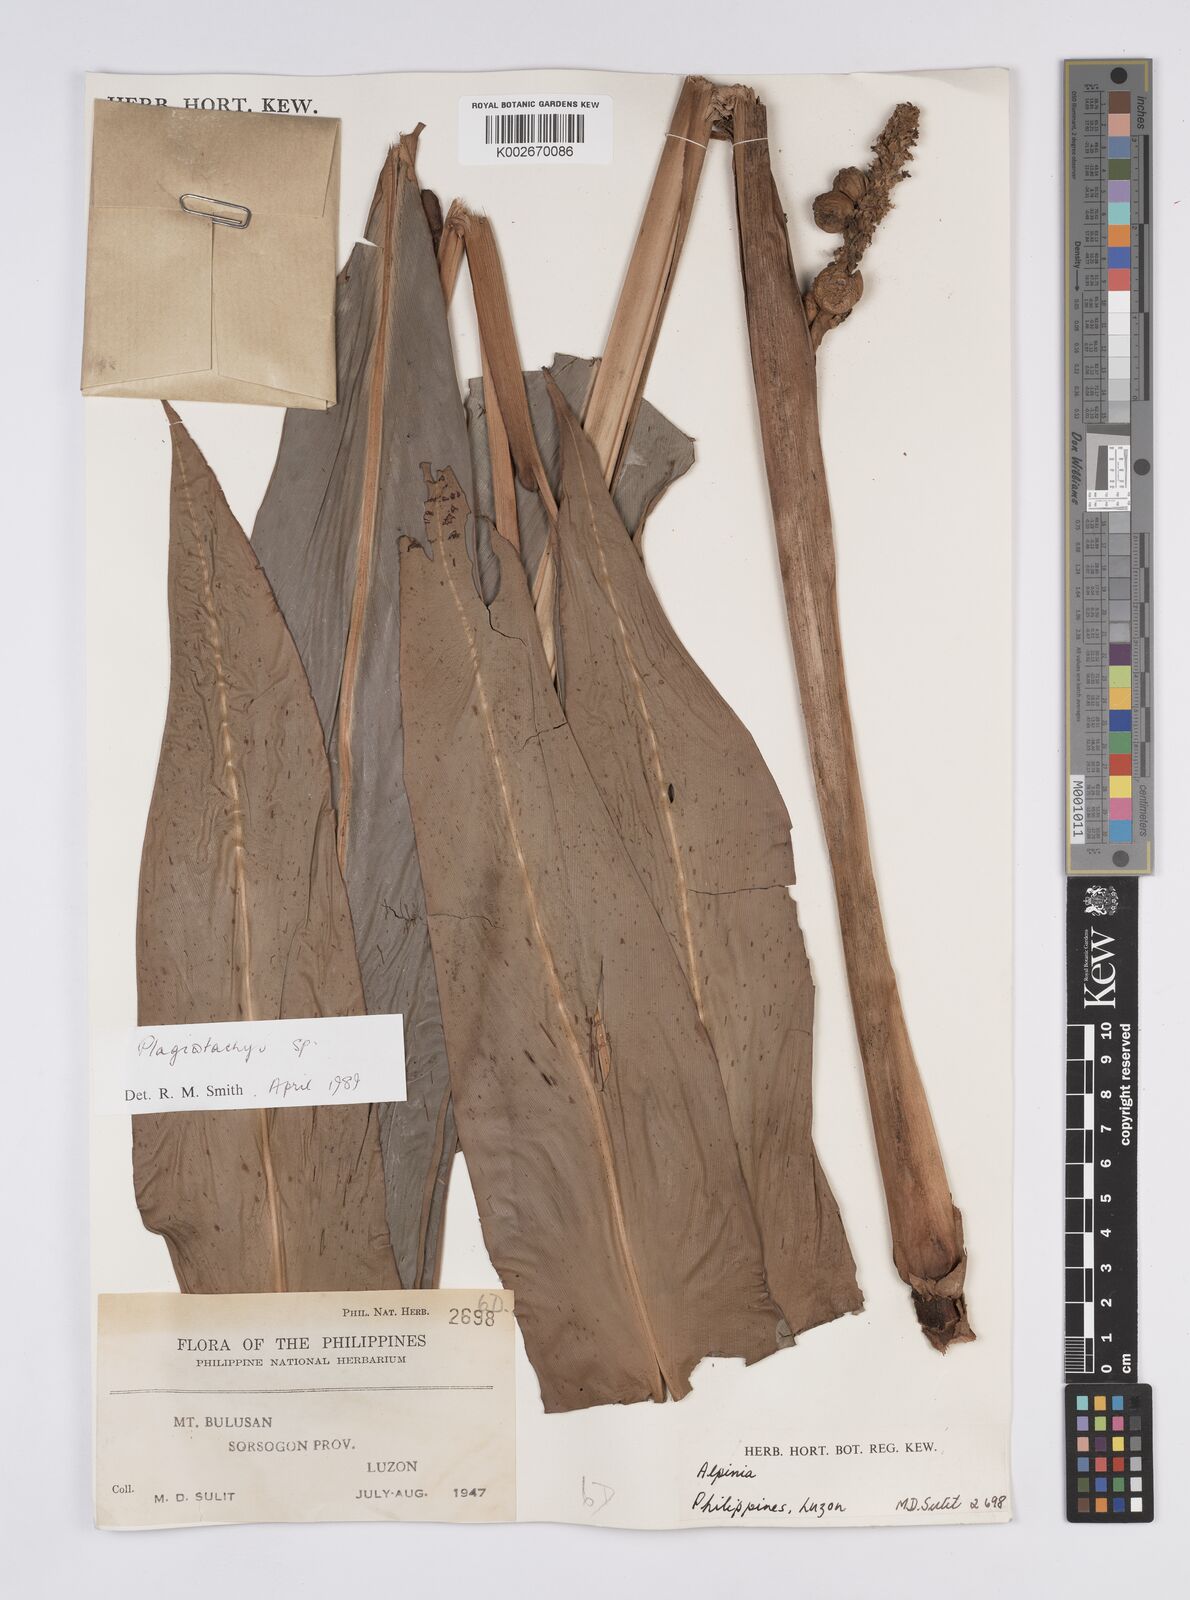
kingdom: Plantae
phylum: Tracheophyta
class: Liliopsida
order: Zingiberales
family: Zingiberaceae
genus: Plagiostachys
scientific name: Plagiostachys
